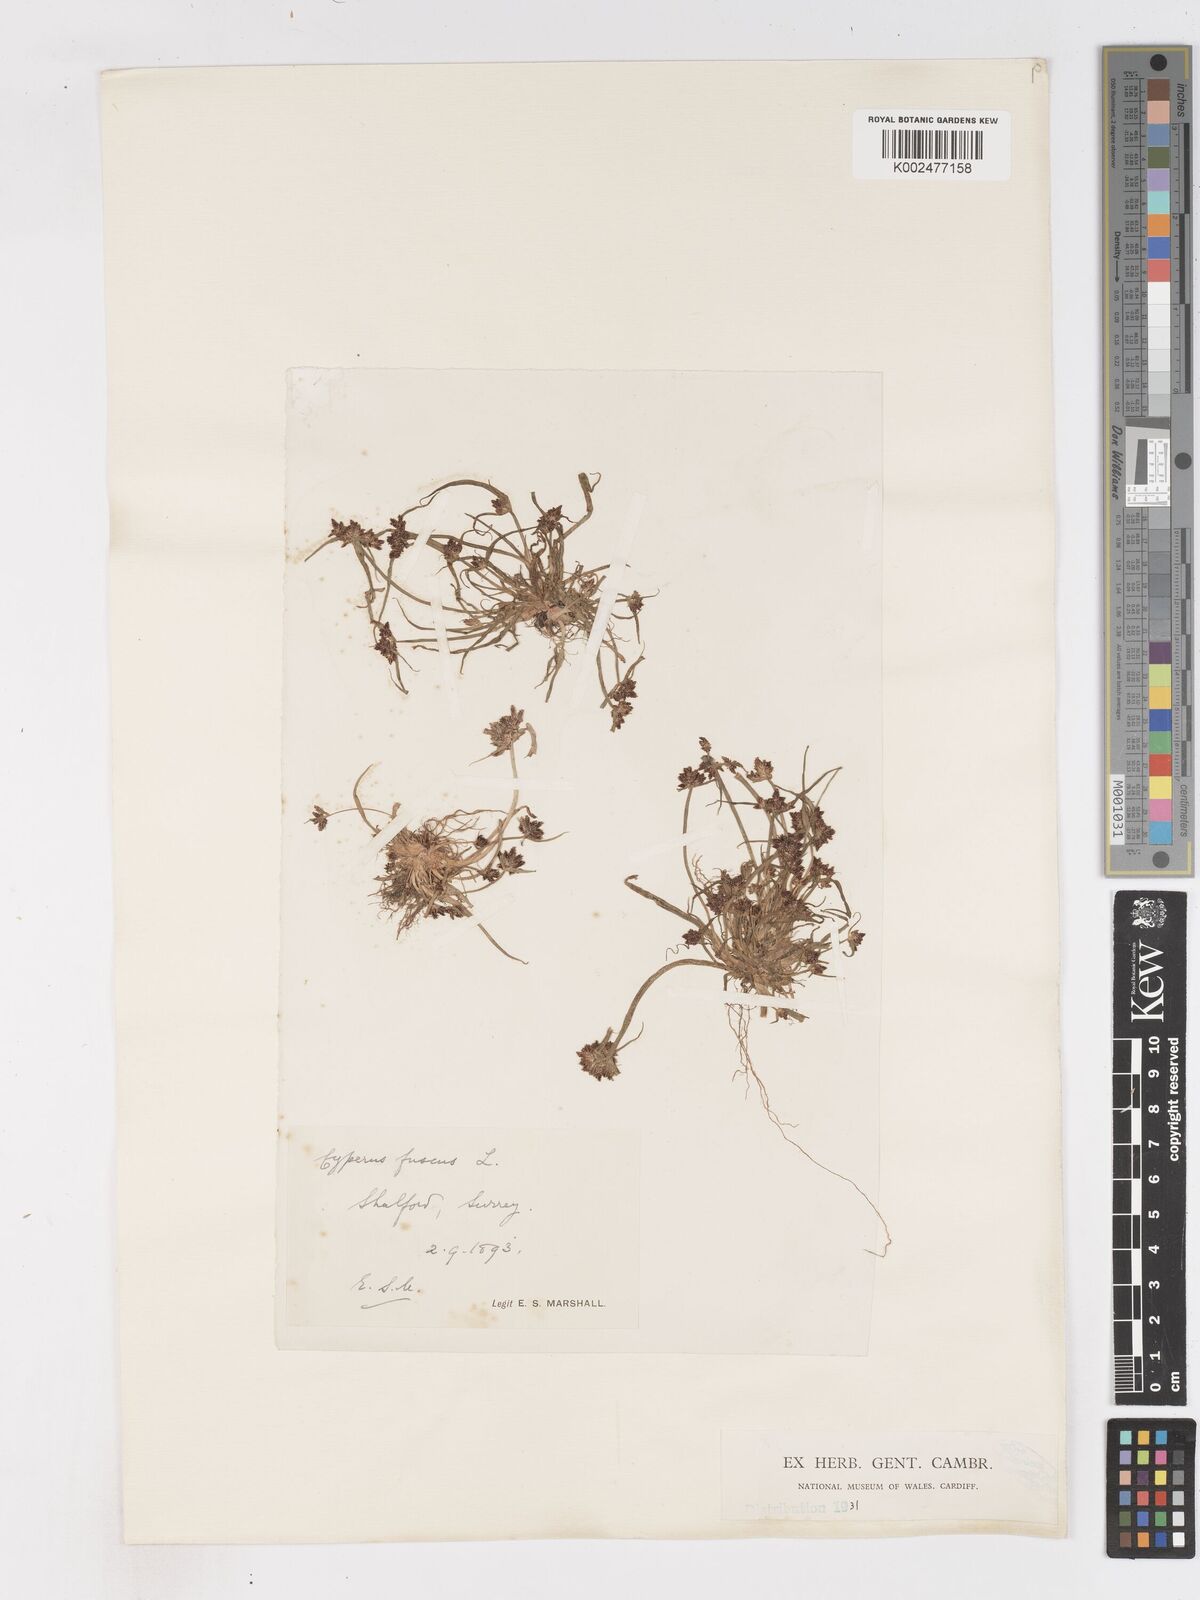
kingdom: Plantae
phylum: Tracheophyta
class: Liliopsida
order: Poales
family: Cyperaceae
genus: Cyperus
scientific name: Cyperus fuscus
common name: Brown galingale
